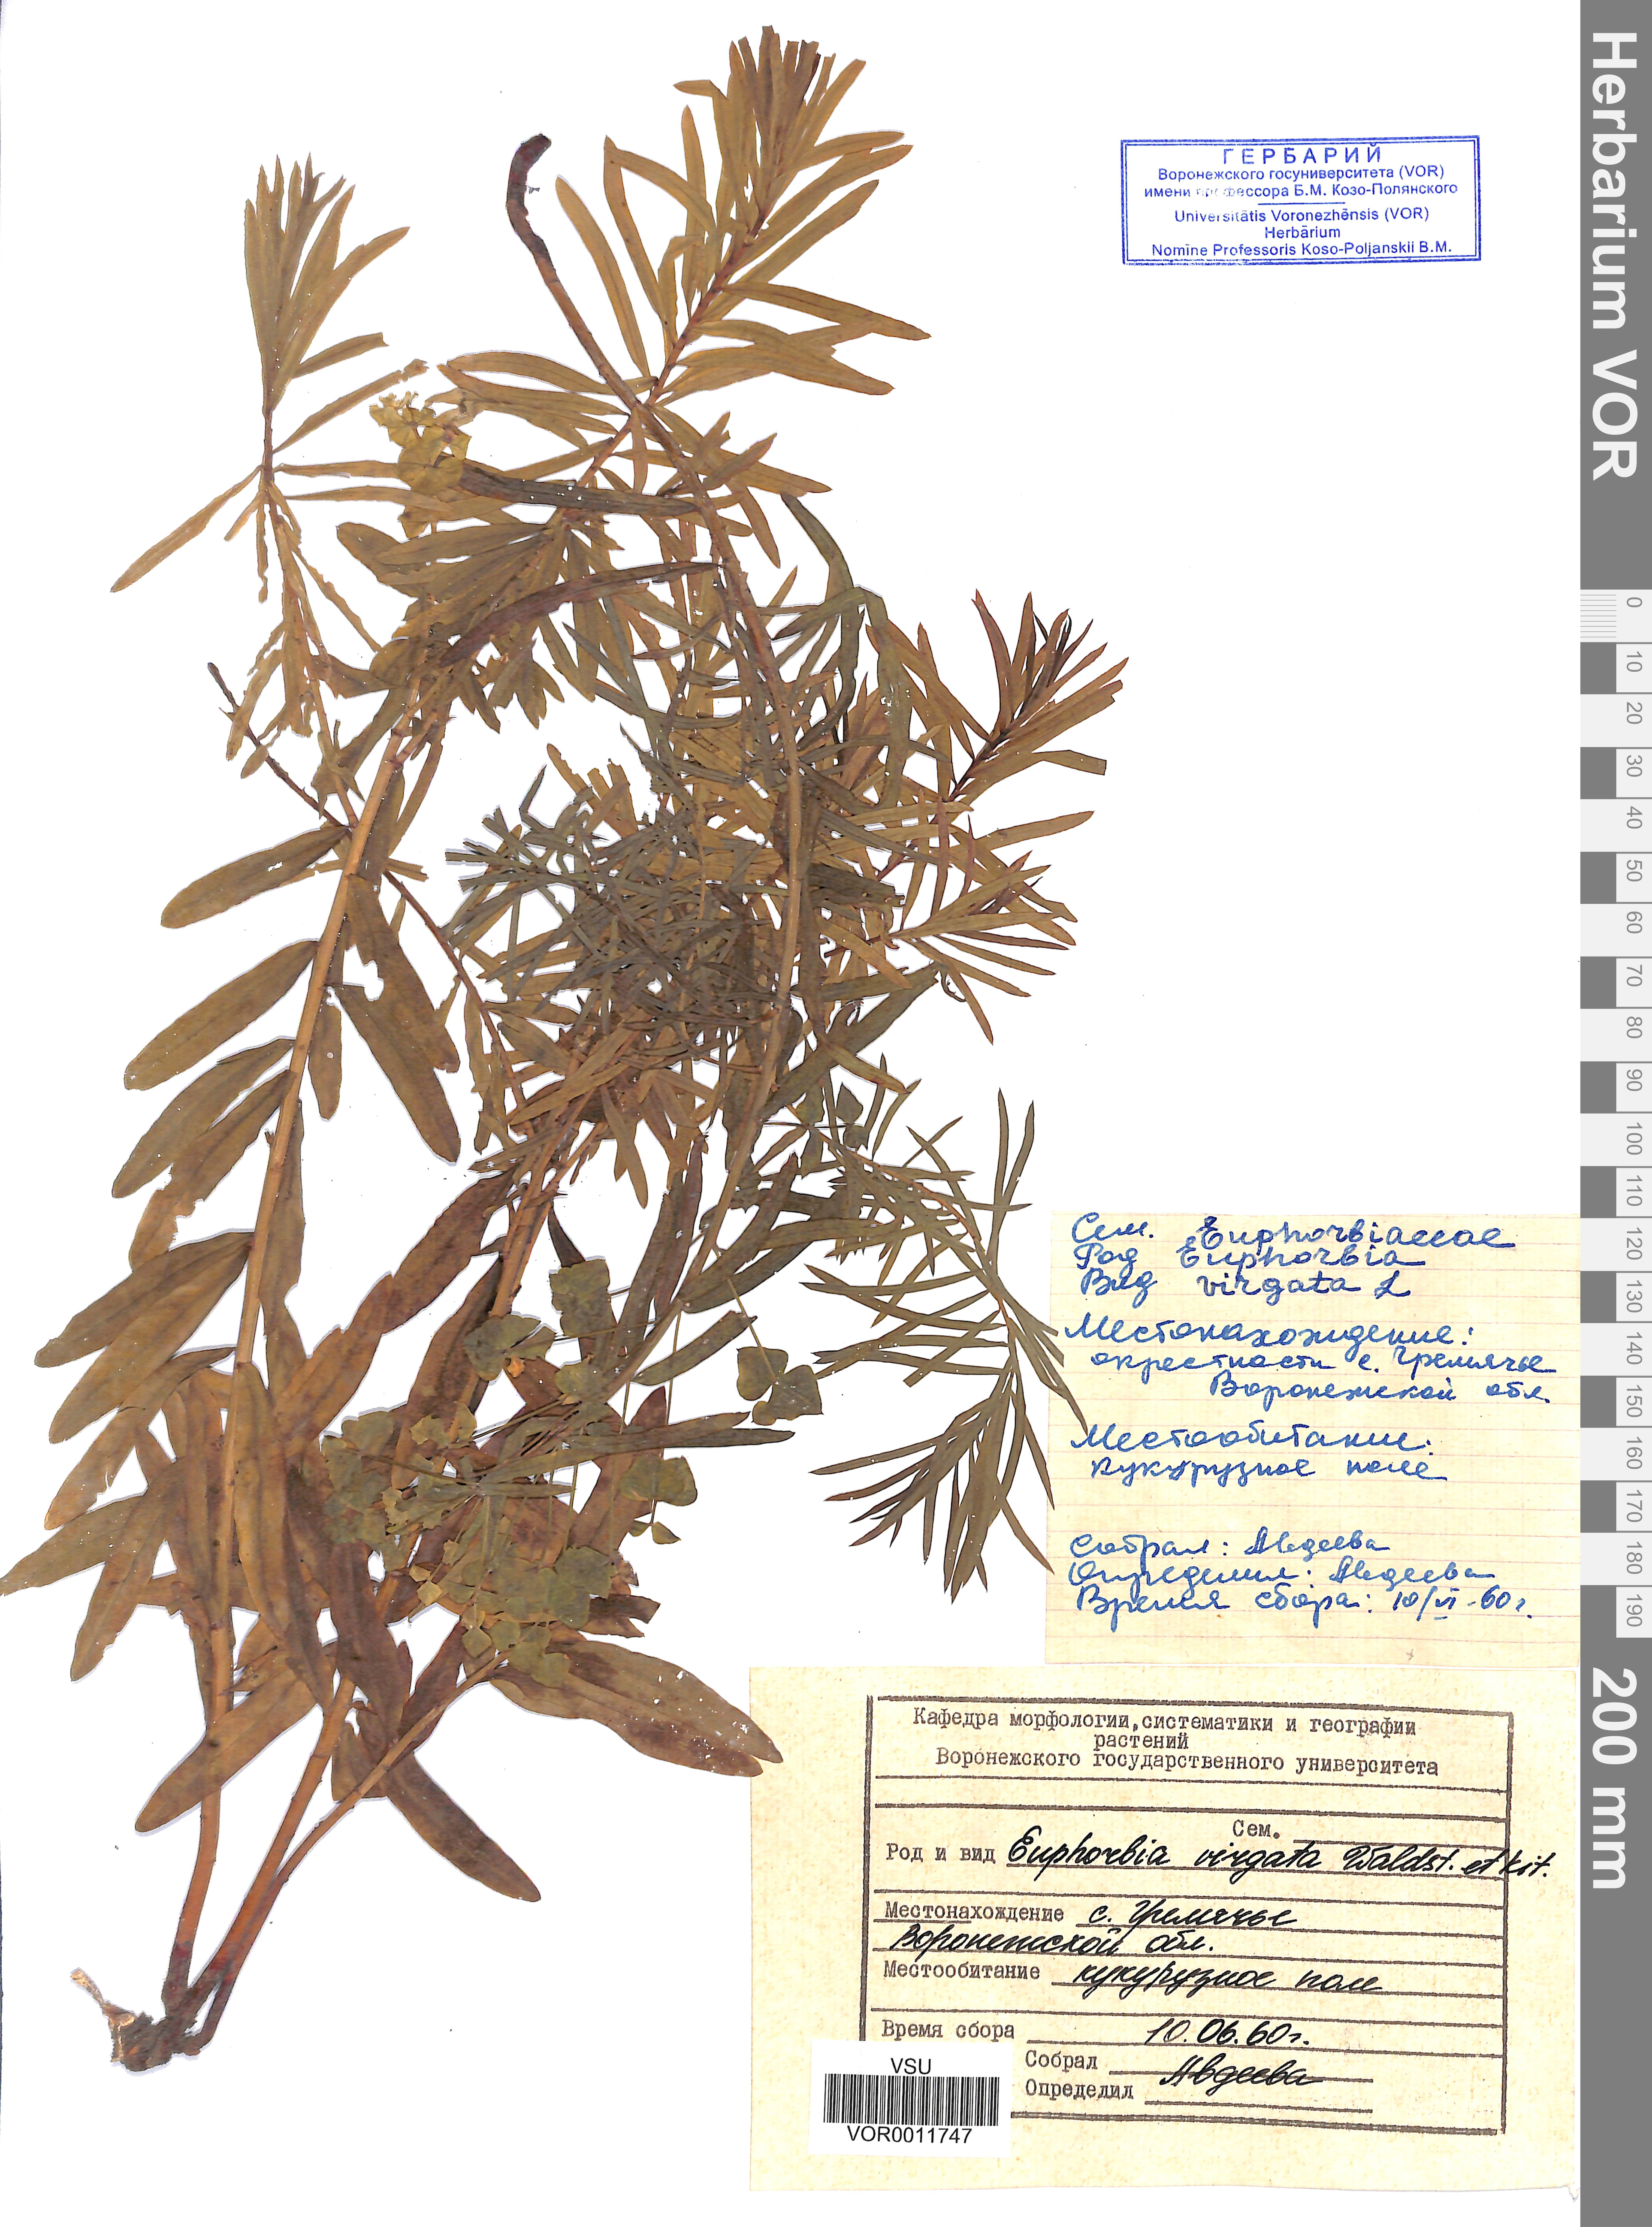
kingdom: Plantae
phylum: Tracheophyta
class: Magnoliopsida
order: Malpighiales
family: Euphorbiaceae
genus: Euphorbia
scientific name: Euphorbia virgata
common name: Leafy spurge
